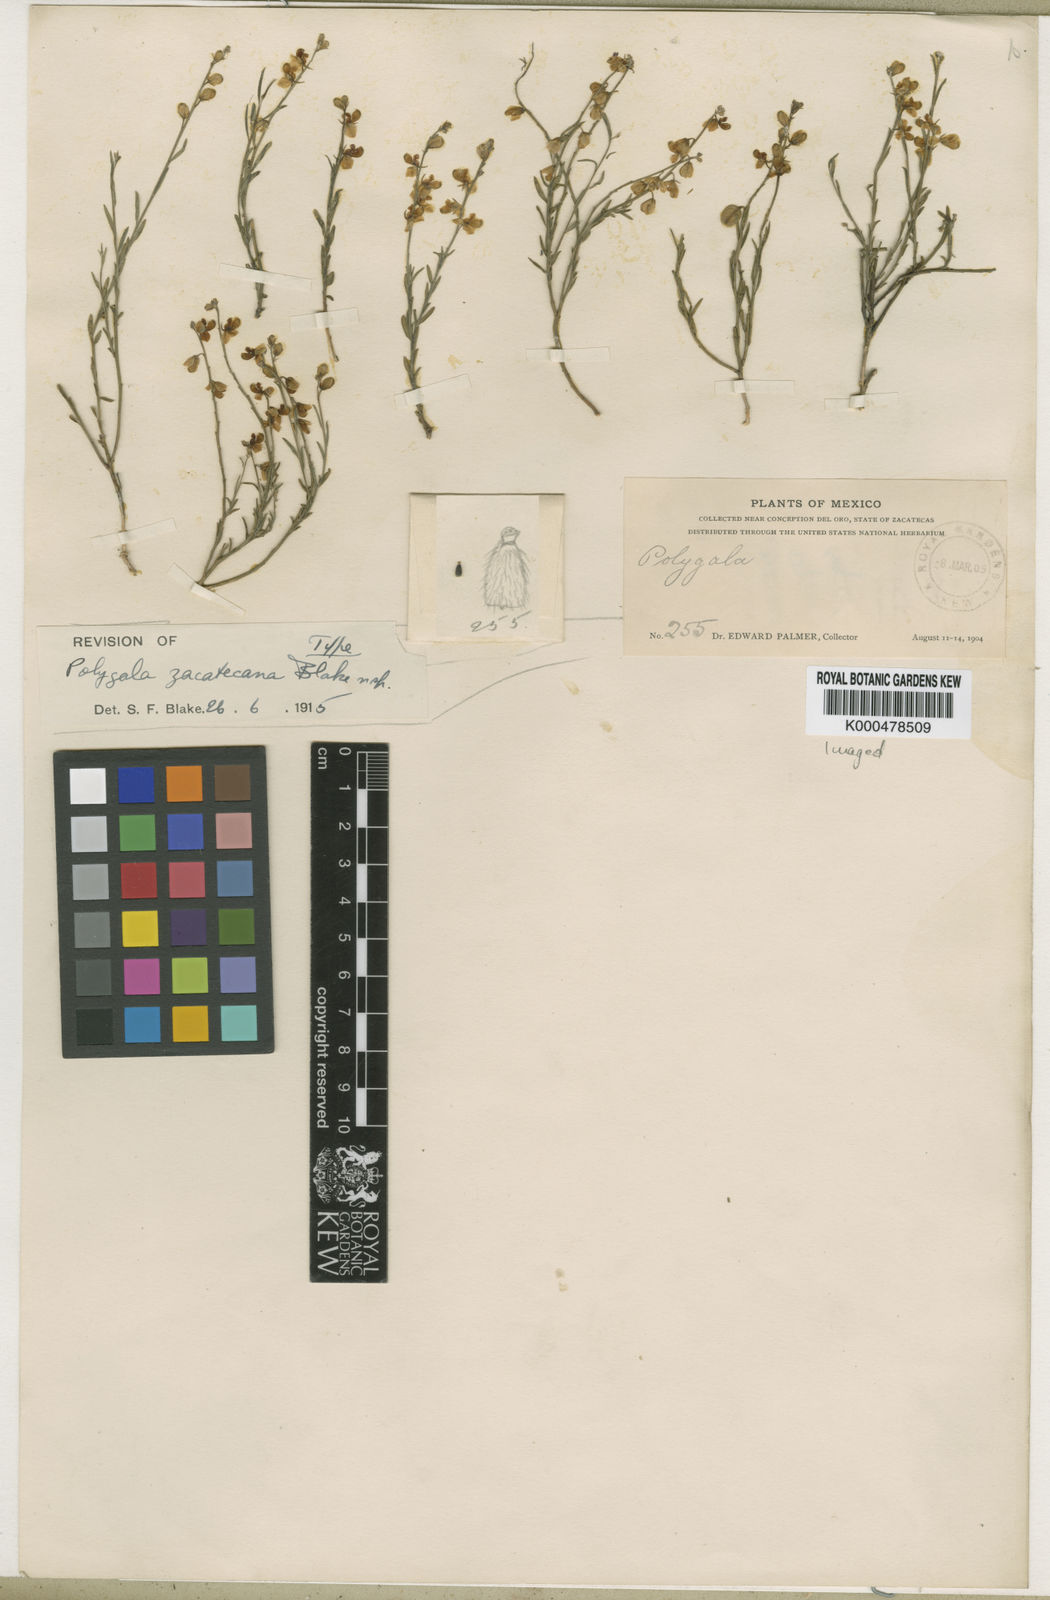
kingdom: Plantae
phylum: Tracheophyta
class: Magnoliopsida
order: Fabales
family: Polygalaceae
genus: Hebecarpa
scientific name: Hebecarpa barbeyana
